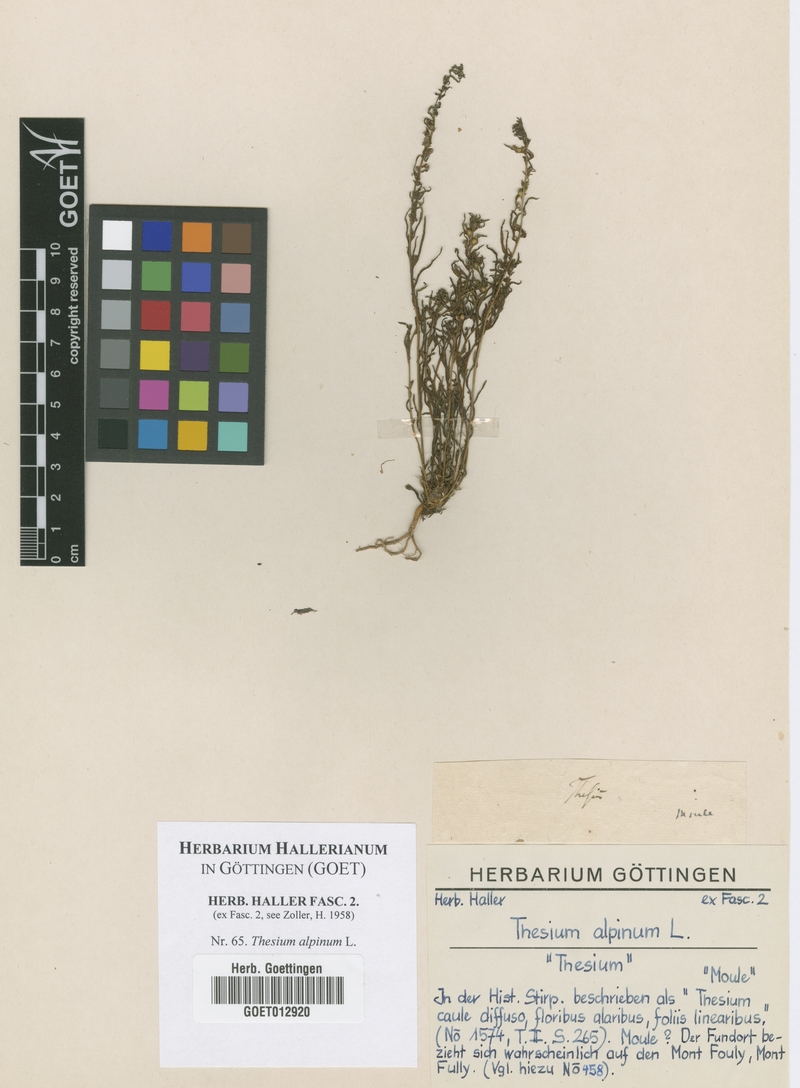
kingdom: Plantae
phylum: Tracheophyta
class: Magnoliopsida
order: Santalales
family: Thesiaceae
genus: Thesium
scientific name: Thesium alpinum
